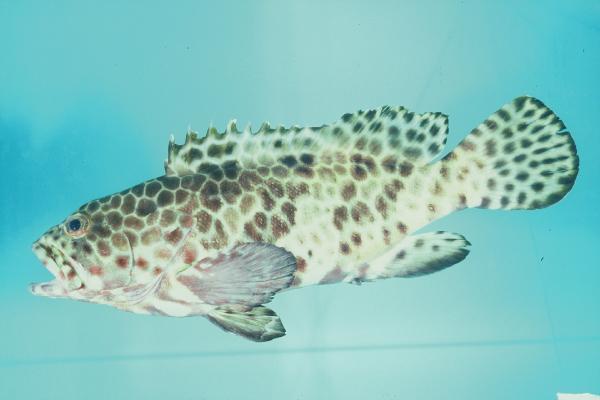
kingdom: Animalia
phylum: Chordata
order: Perciformes
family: Serranidae
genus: Epinephelus
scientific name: Epinephelus quoyanus
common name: Longfin grouper
